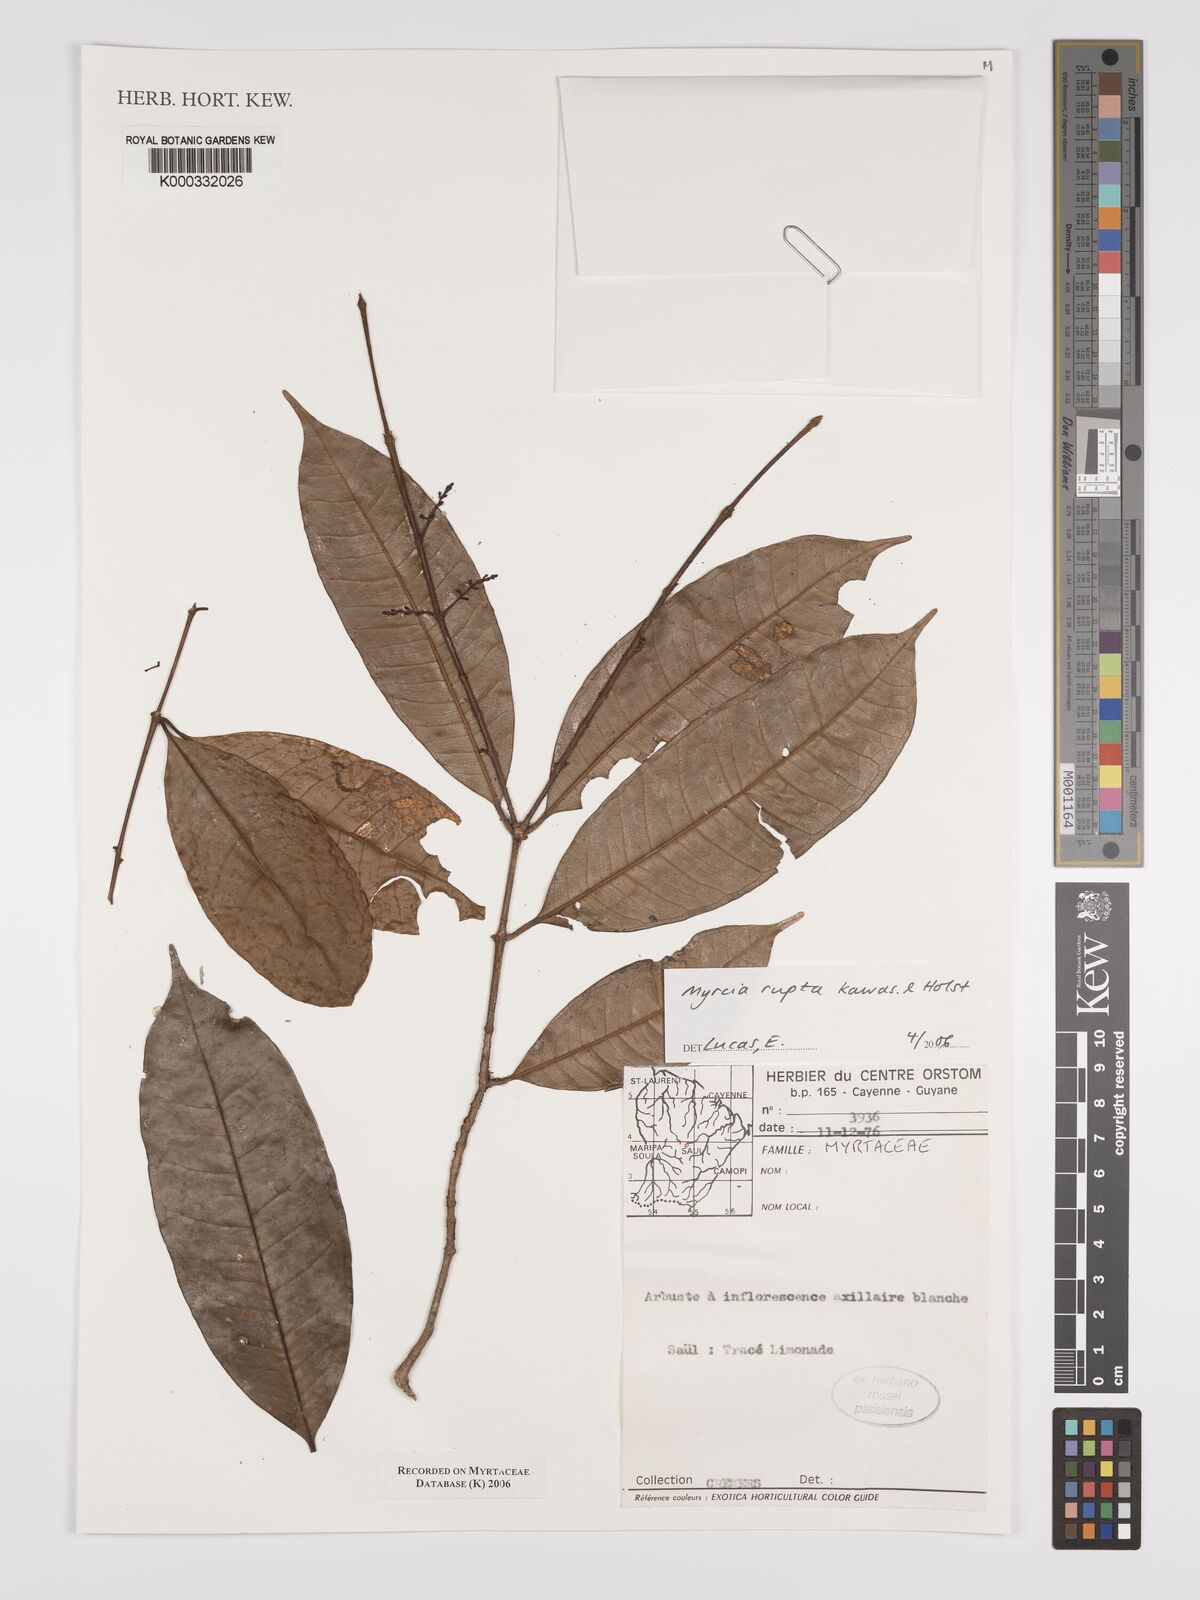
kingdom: Plantae
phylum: Tracheophyta
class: Magnoliopsida
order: Myrtales
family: Myrtaceae
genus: Myrcia
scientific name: Myrcia rupta
